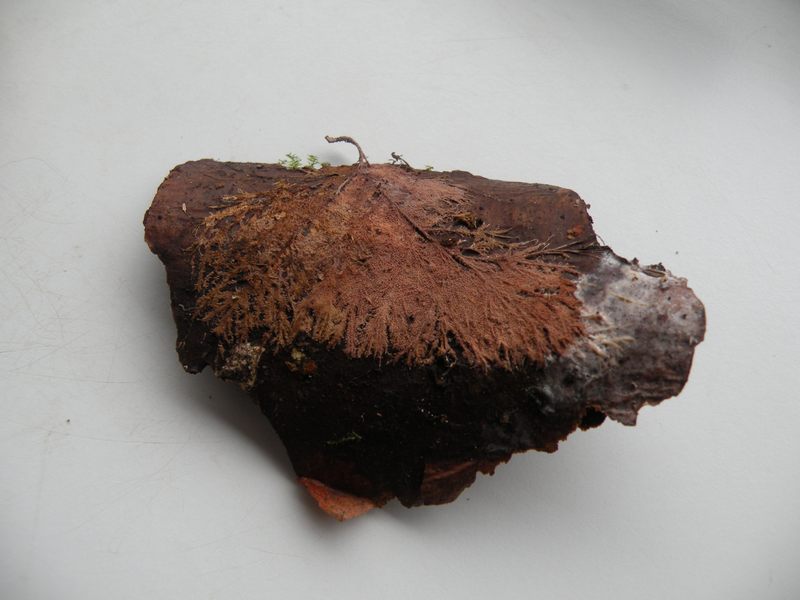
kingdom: Fungi
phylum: Basidiomycota
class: Agaricomycetes
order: Polyporales
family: Steccherinaceae
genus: Steccherinum
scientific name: Steccherinum fimbriatum
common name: trådet skønpig
